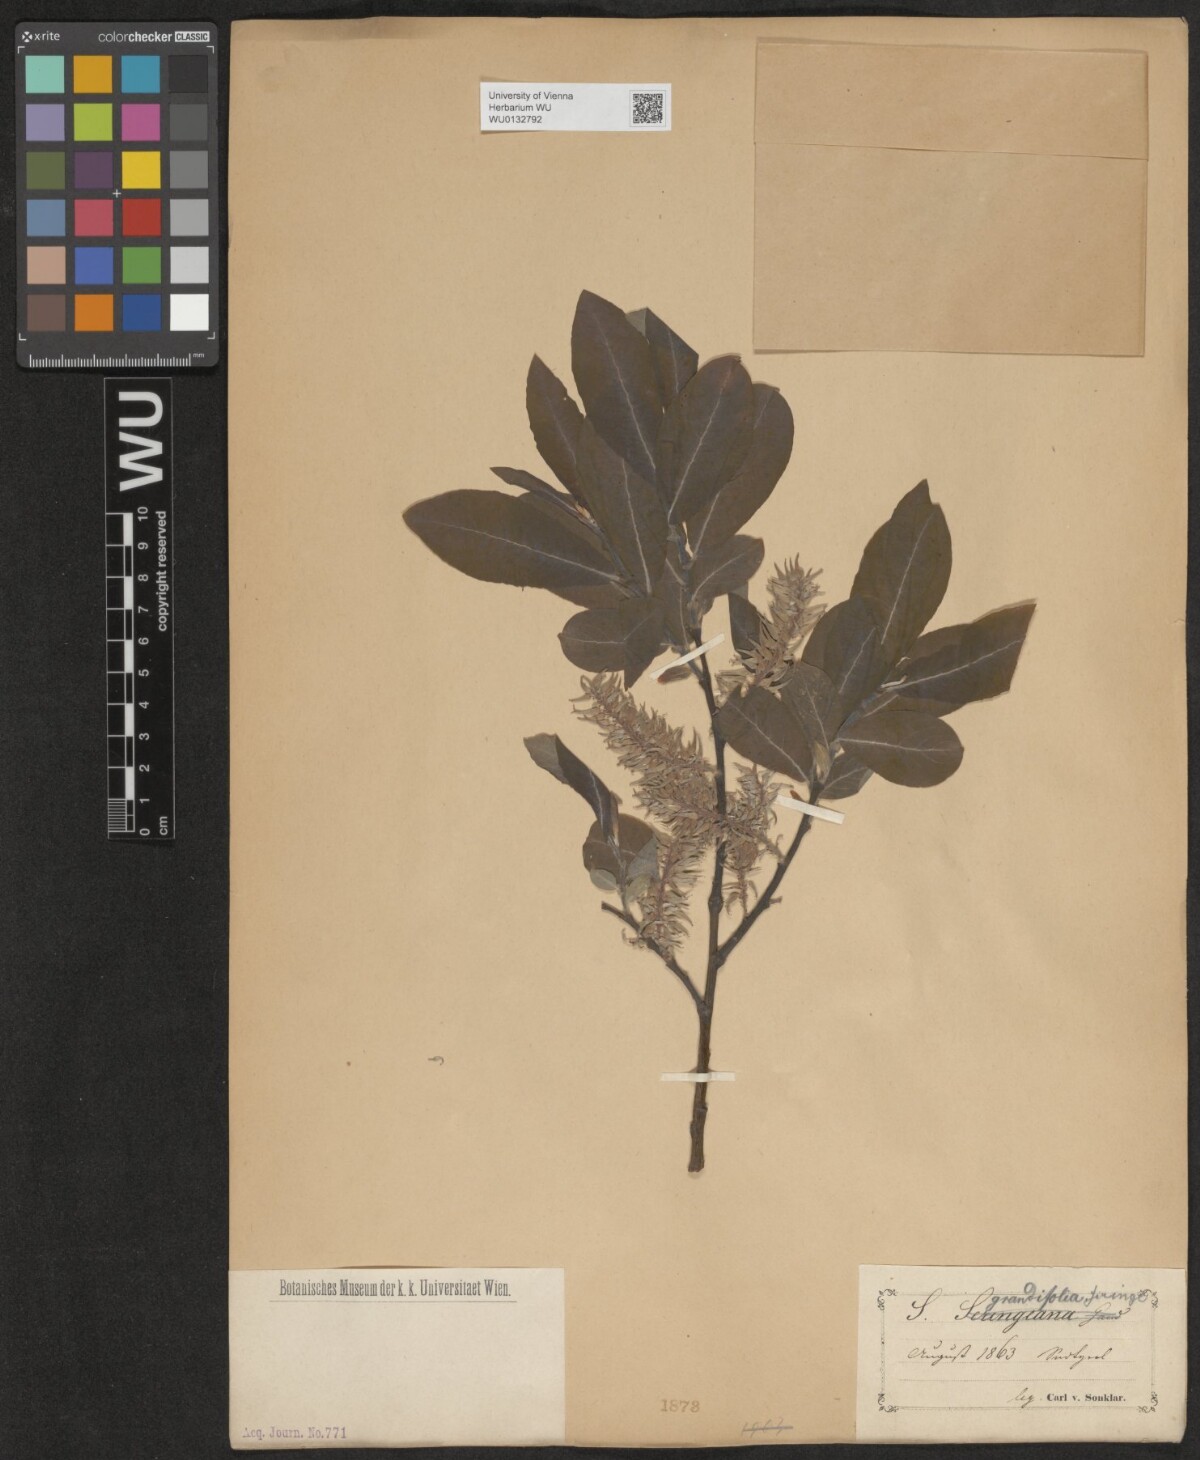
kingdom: Plantae
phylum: Tracheophyta
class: Magnoliopsida
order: Malpighiales
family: Salicaceae
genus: Salix
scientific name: Salix appendiculata
